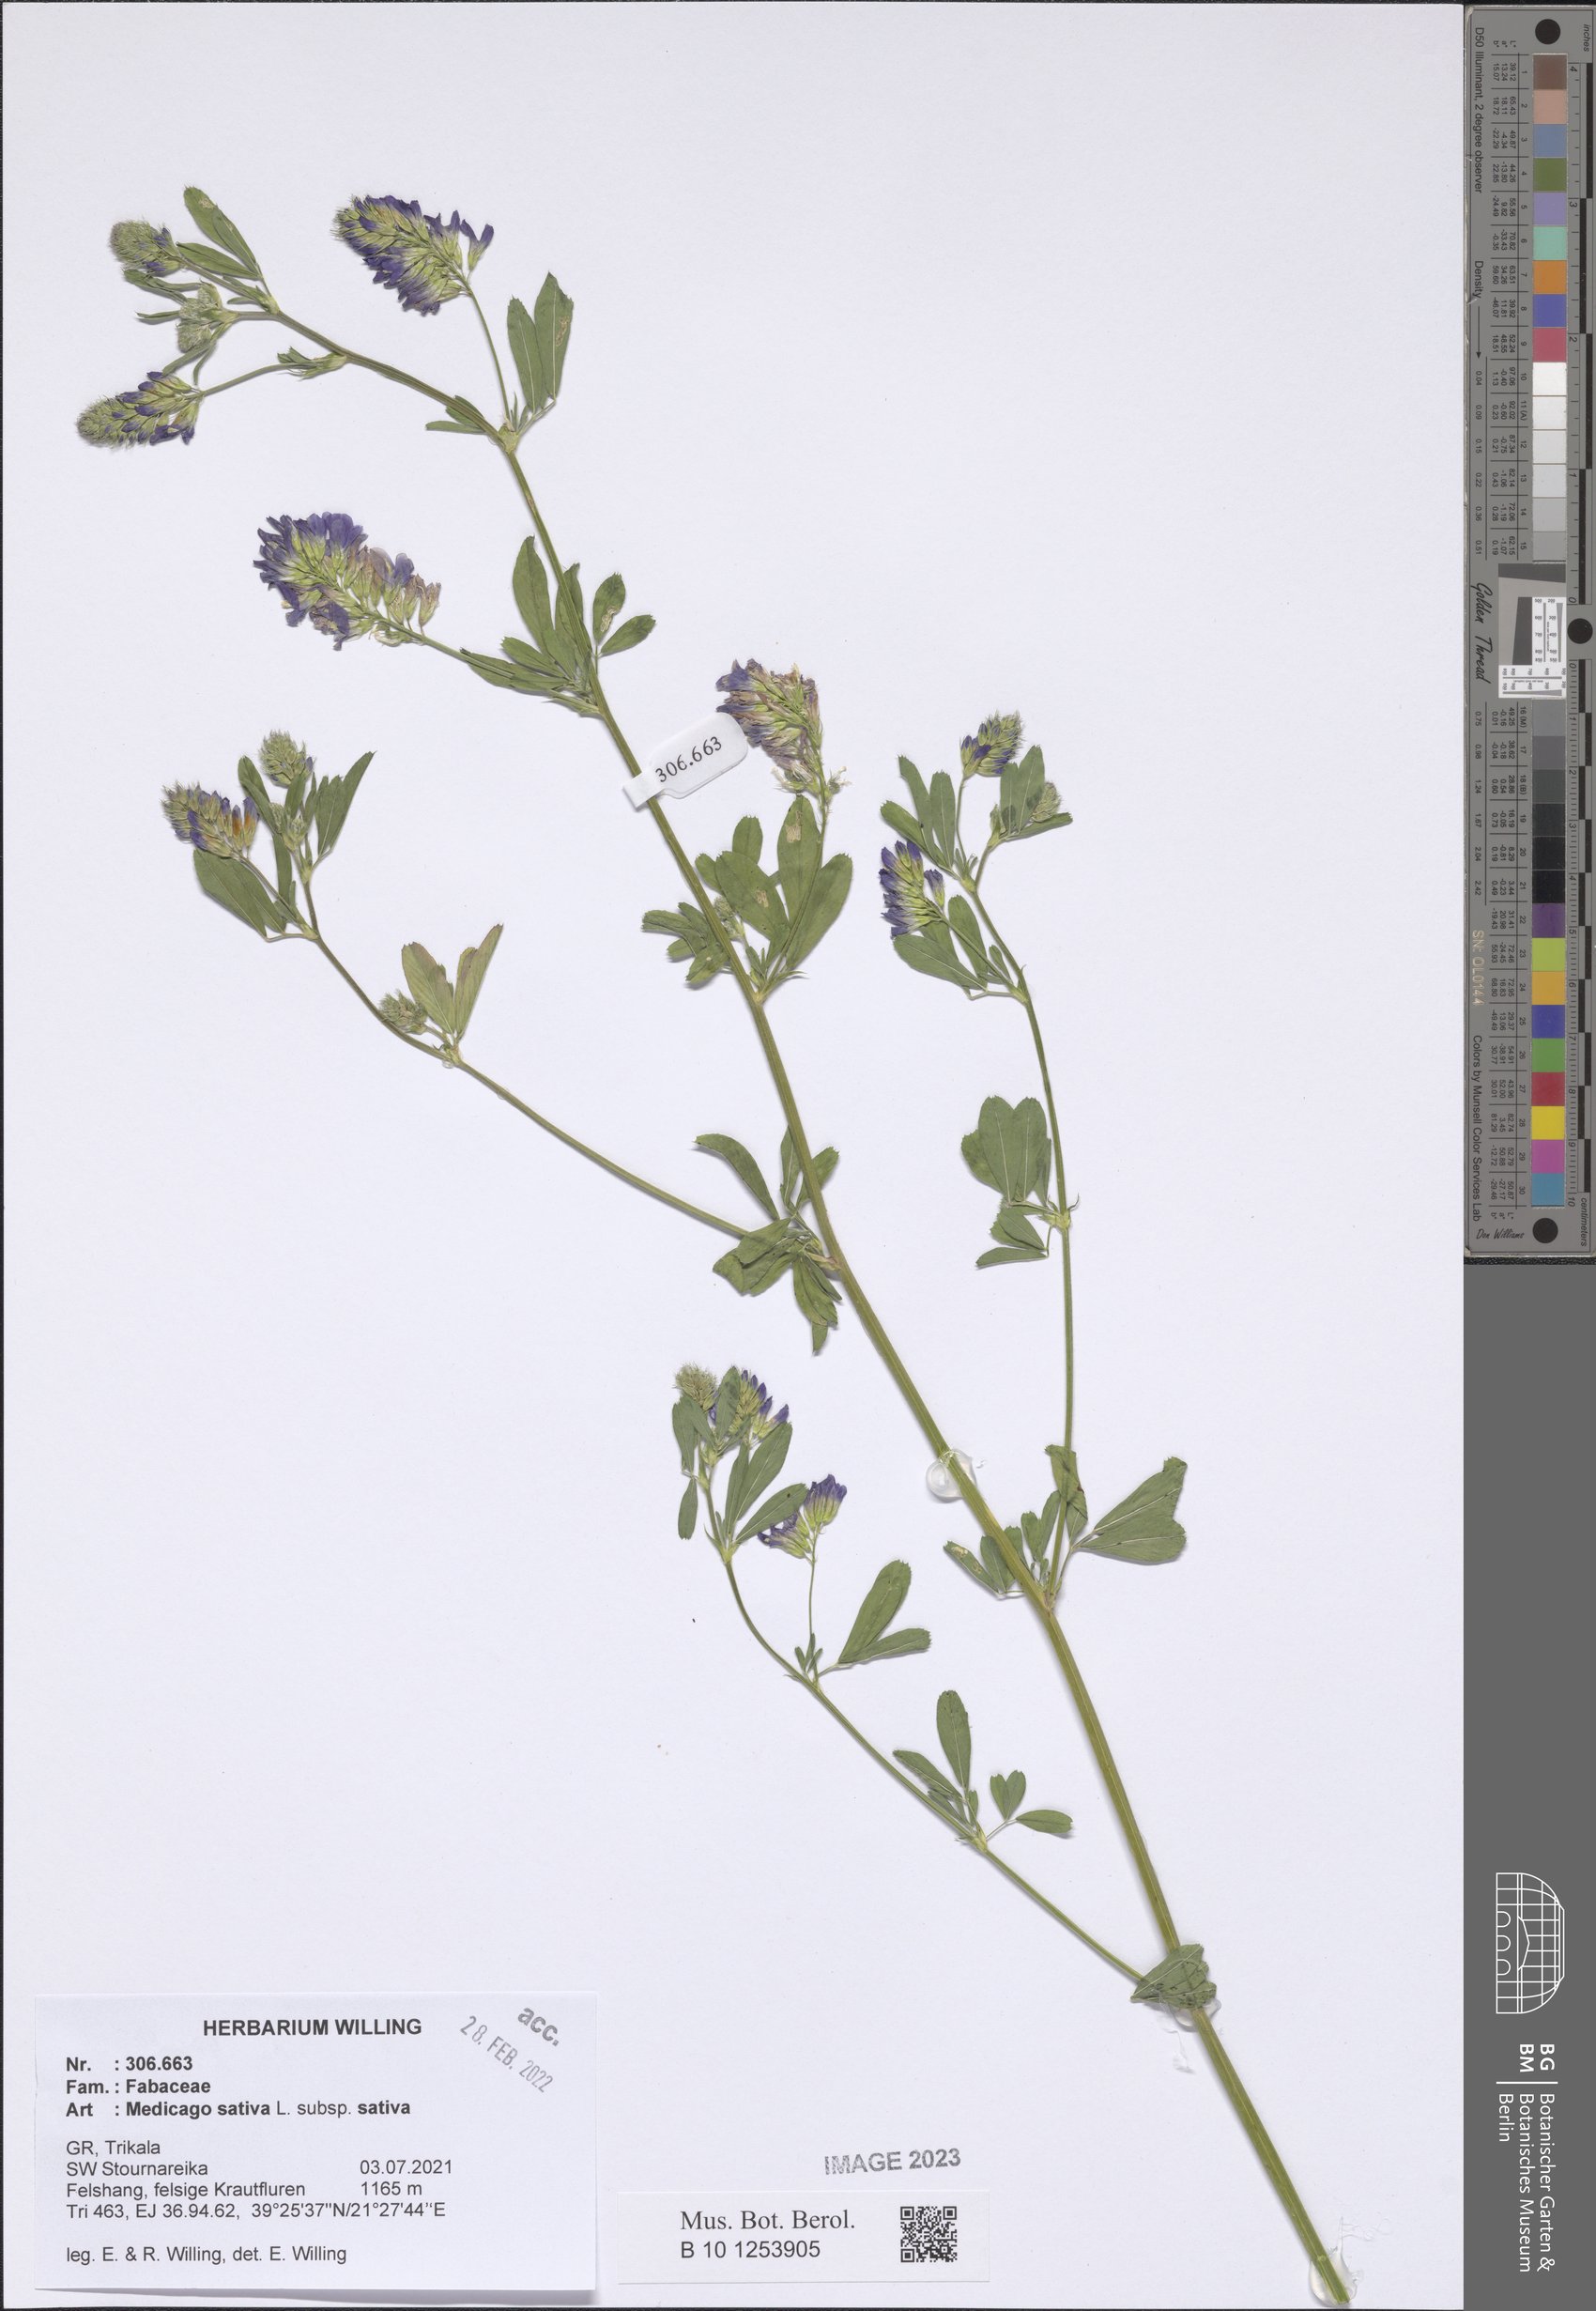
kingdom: Plantae
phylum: Tracheophyta
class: Magnoliopsida
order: Fabales
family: Fabaceae
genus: Medicago
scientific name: Medicago sativa
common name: Alfalfa
